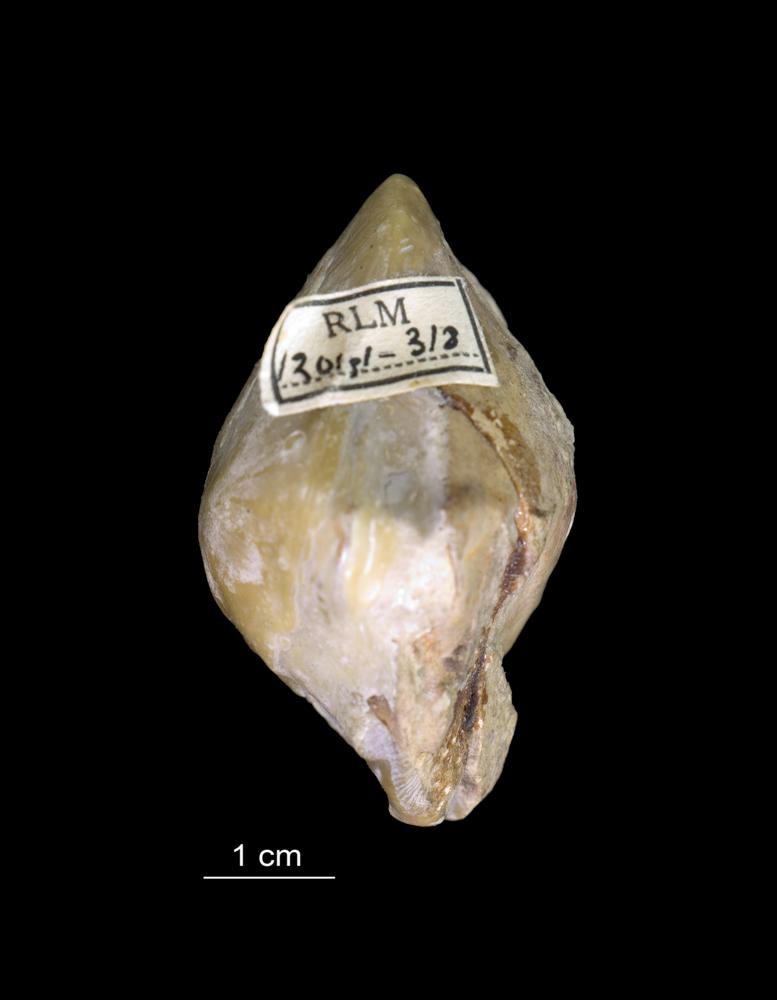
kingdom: Animalia
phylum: Mollusca
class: Bivalvia
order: Ostreida
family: Pterineidae
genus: Pterinea
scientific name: Pterinea
